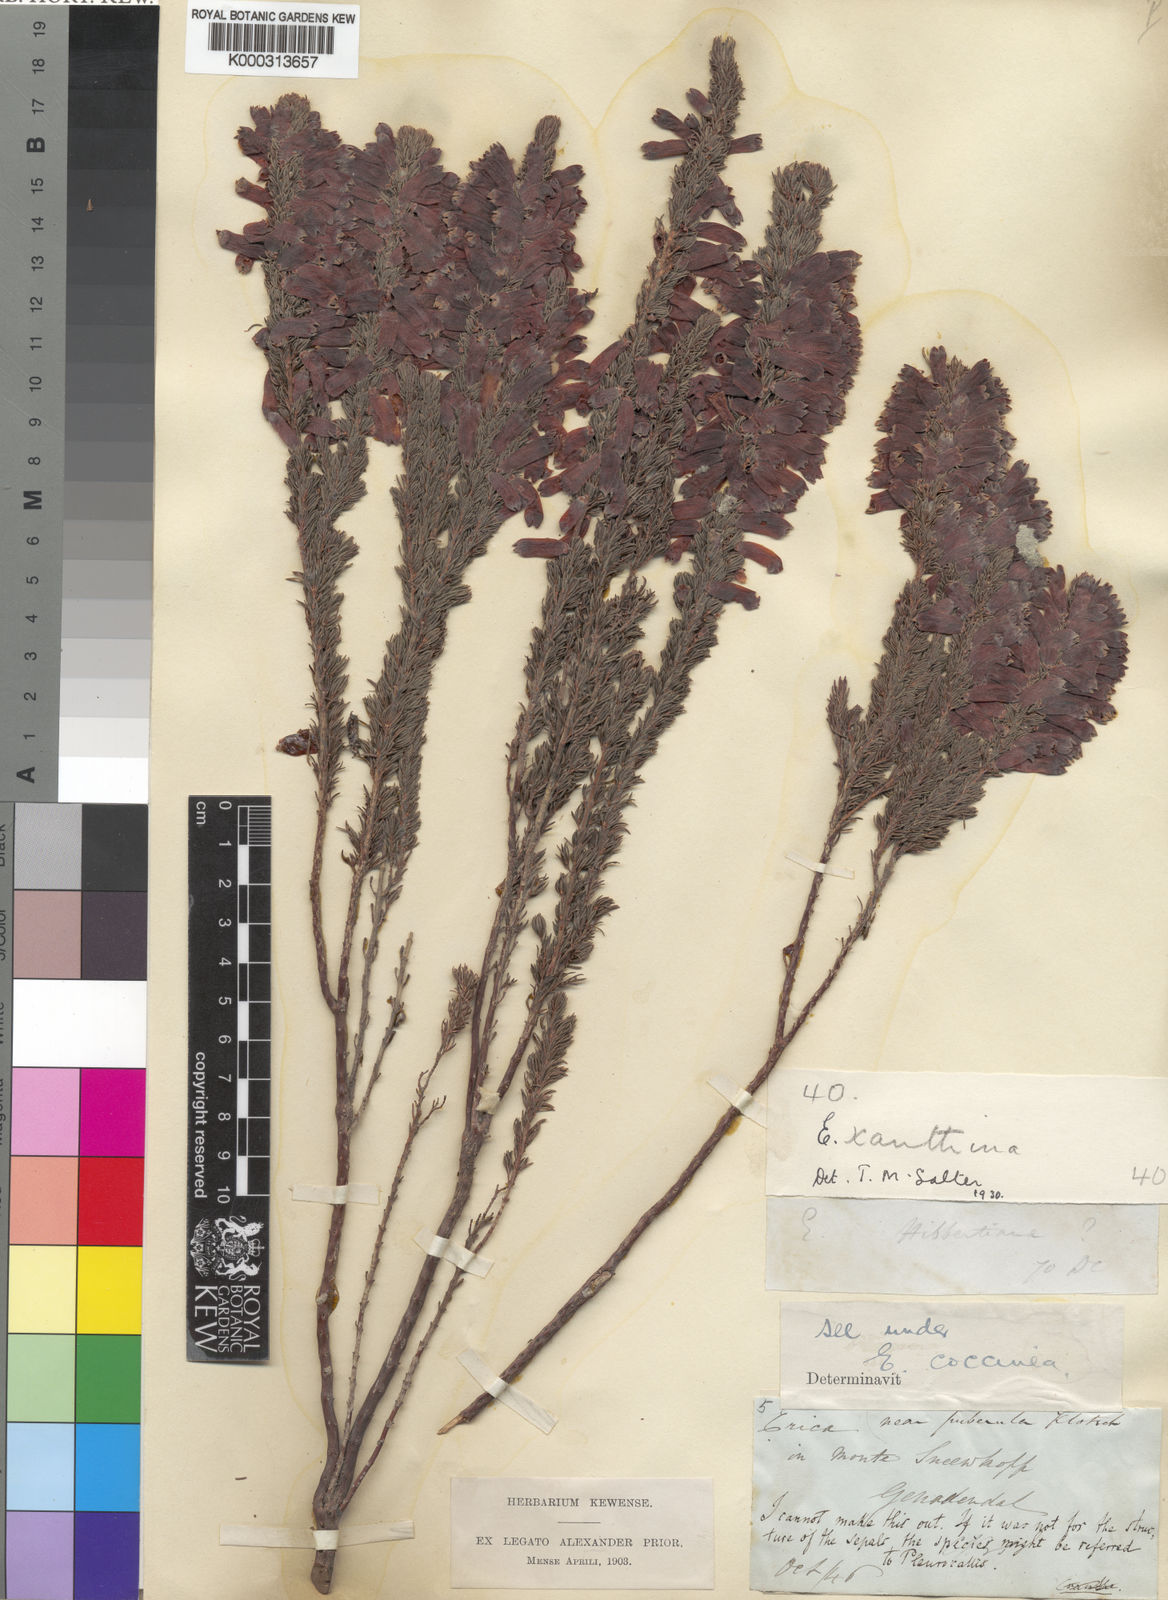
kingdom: Plantae
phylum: Tracheophyta
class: Magnoliopsida
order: Ericales
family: Ericaceae
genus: Erica
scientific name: Erica xanthina
